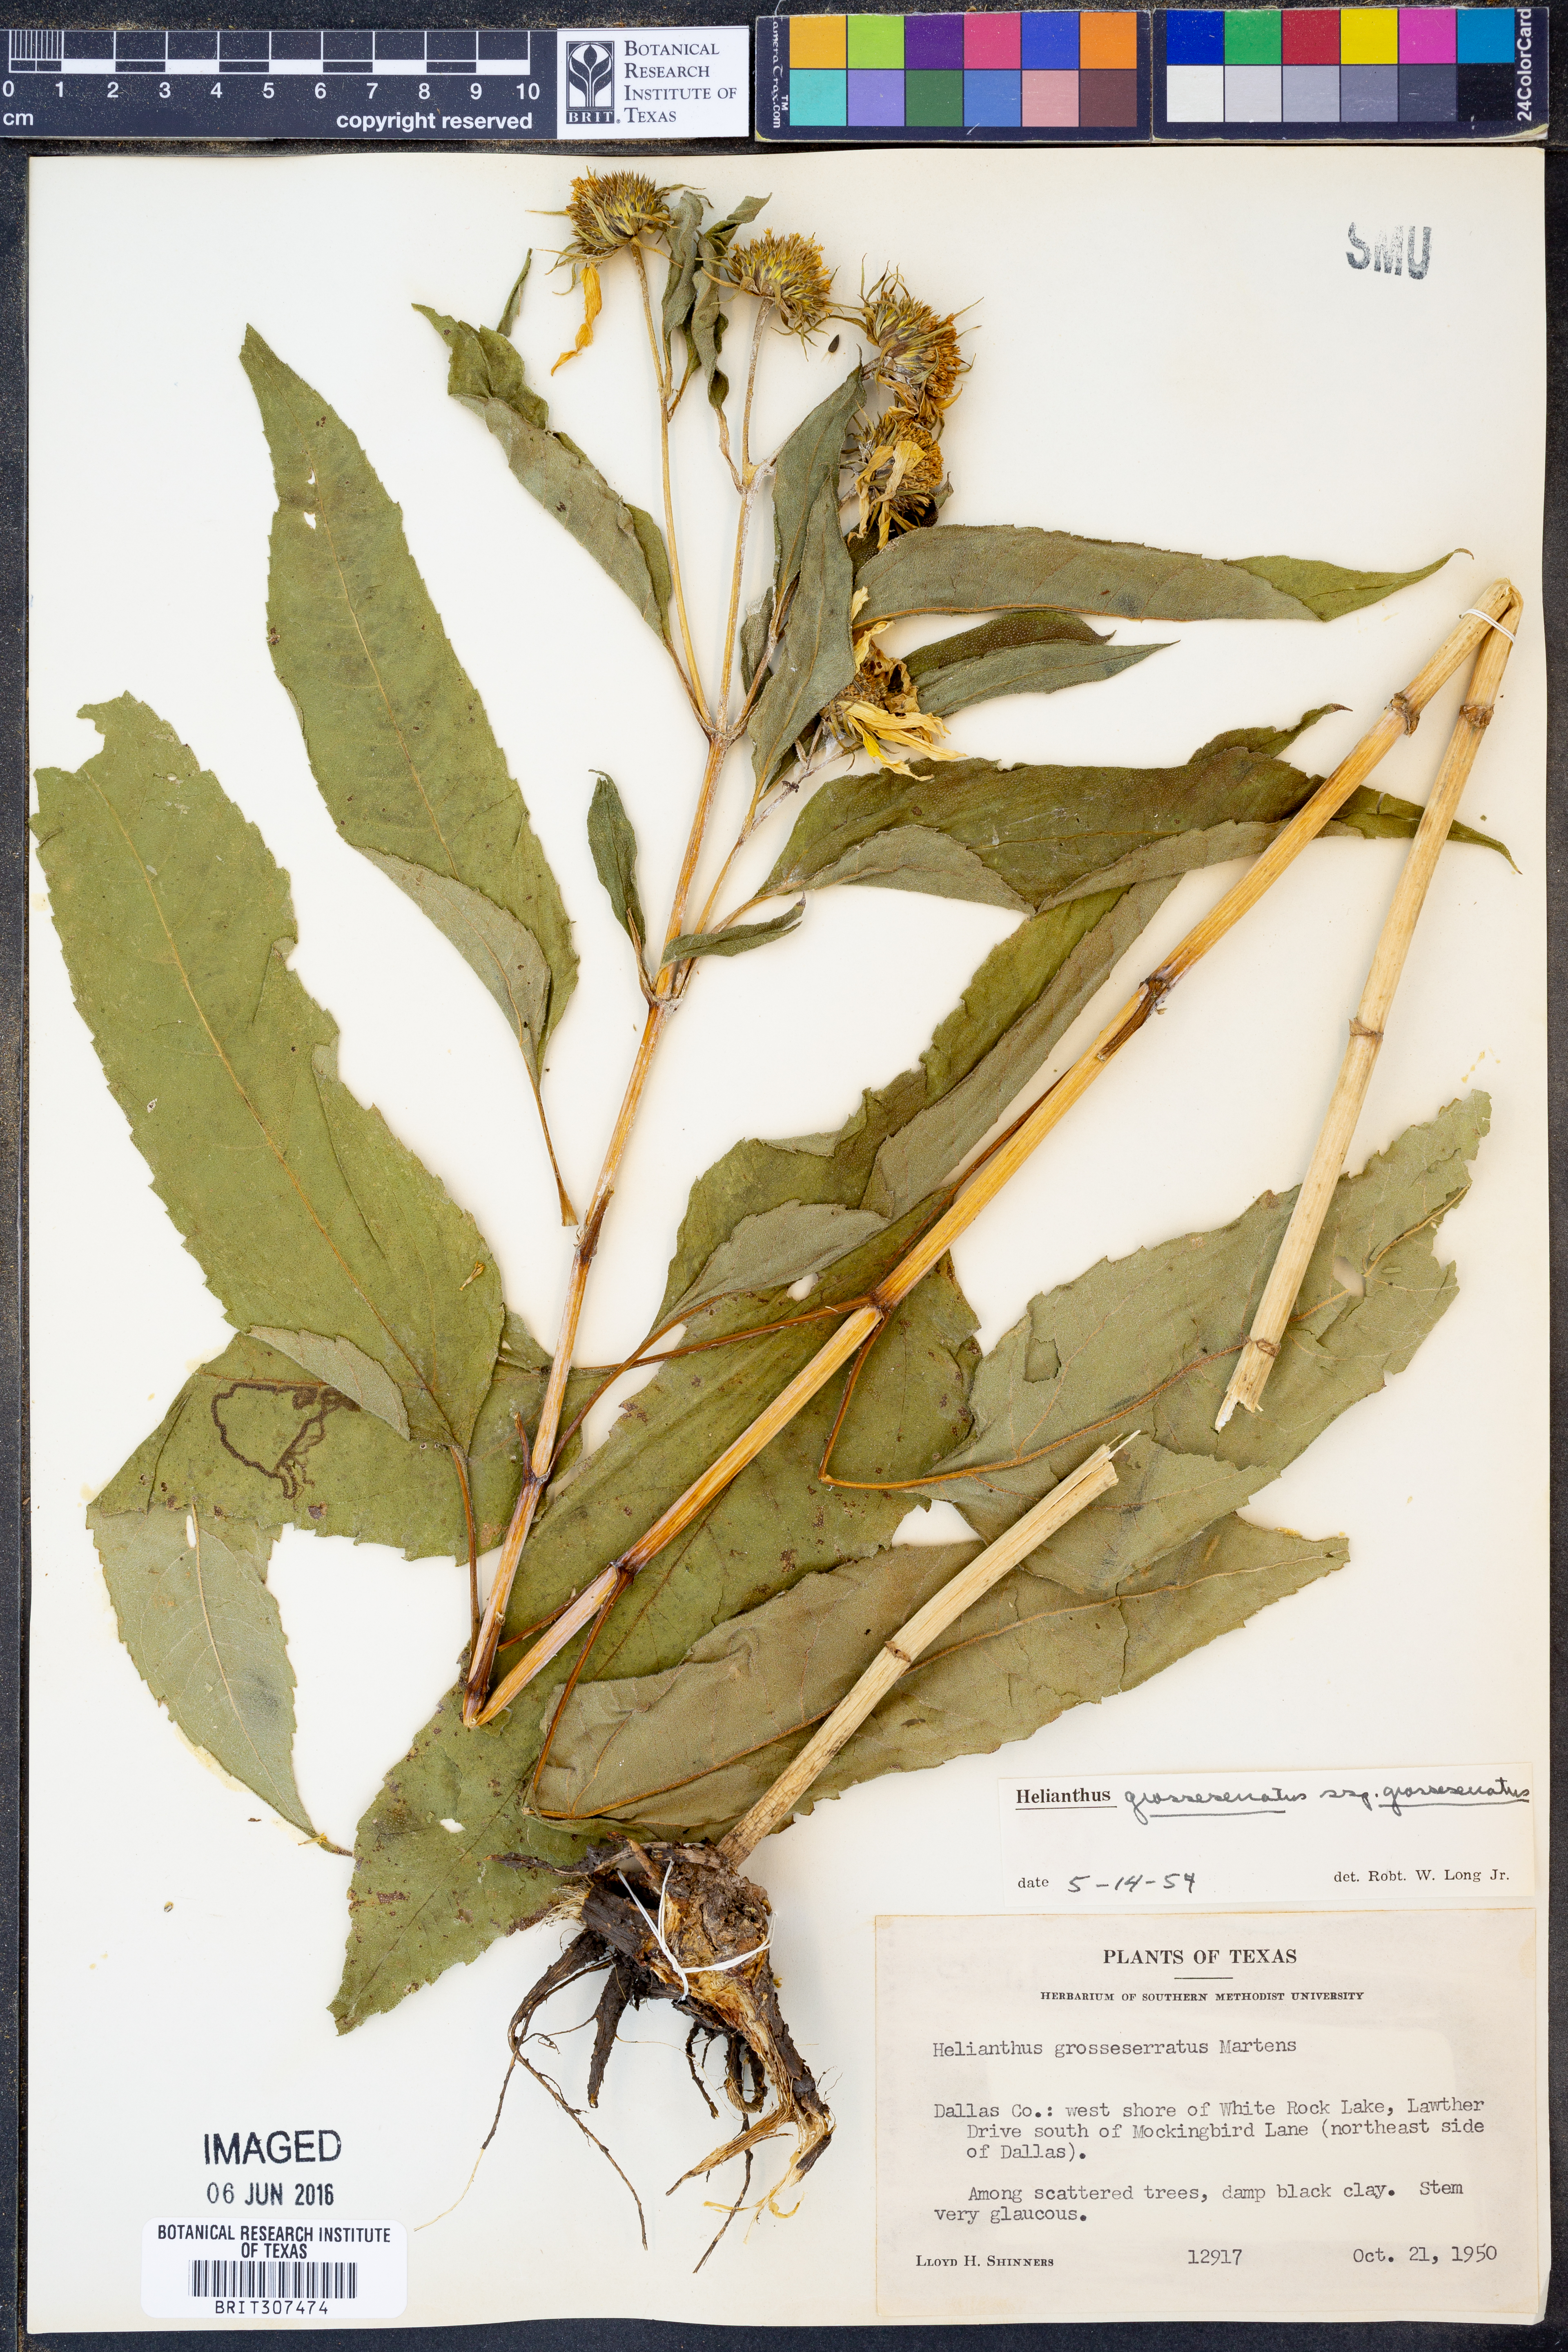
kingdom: Plantae
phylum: Tracheophyta
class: Magnoliopsida
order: Asterales
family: Asteraceae
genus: Helianthus
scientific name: Helianthus grosseserratus
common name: Sawtooth sunflower
